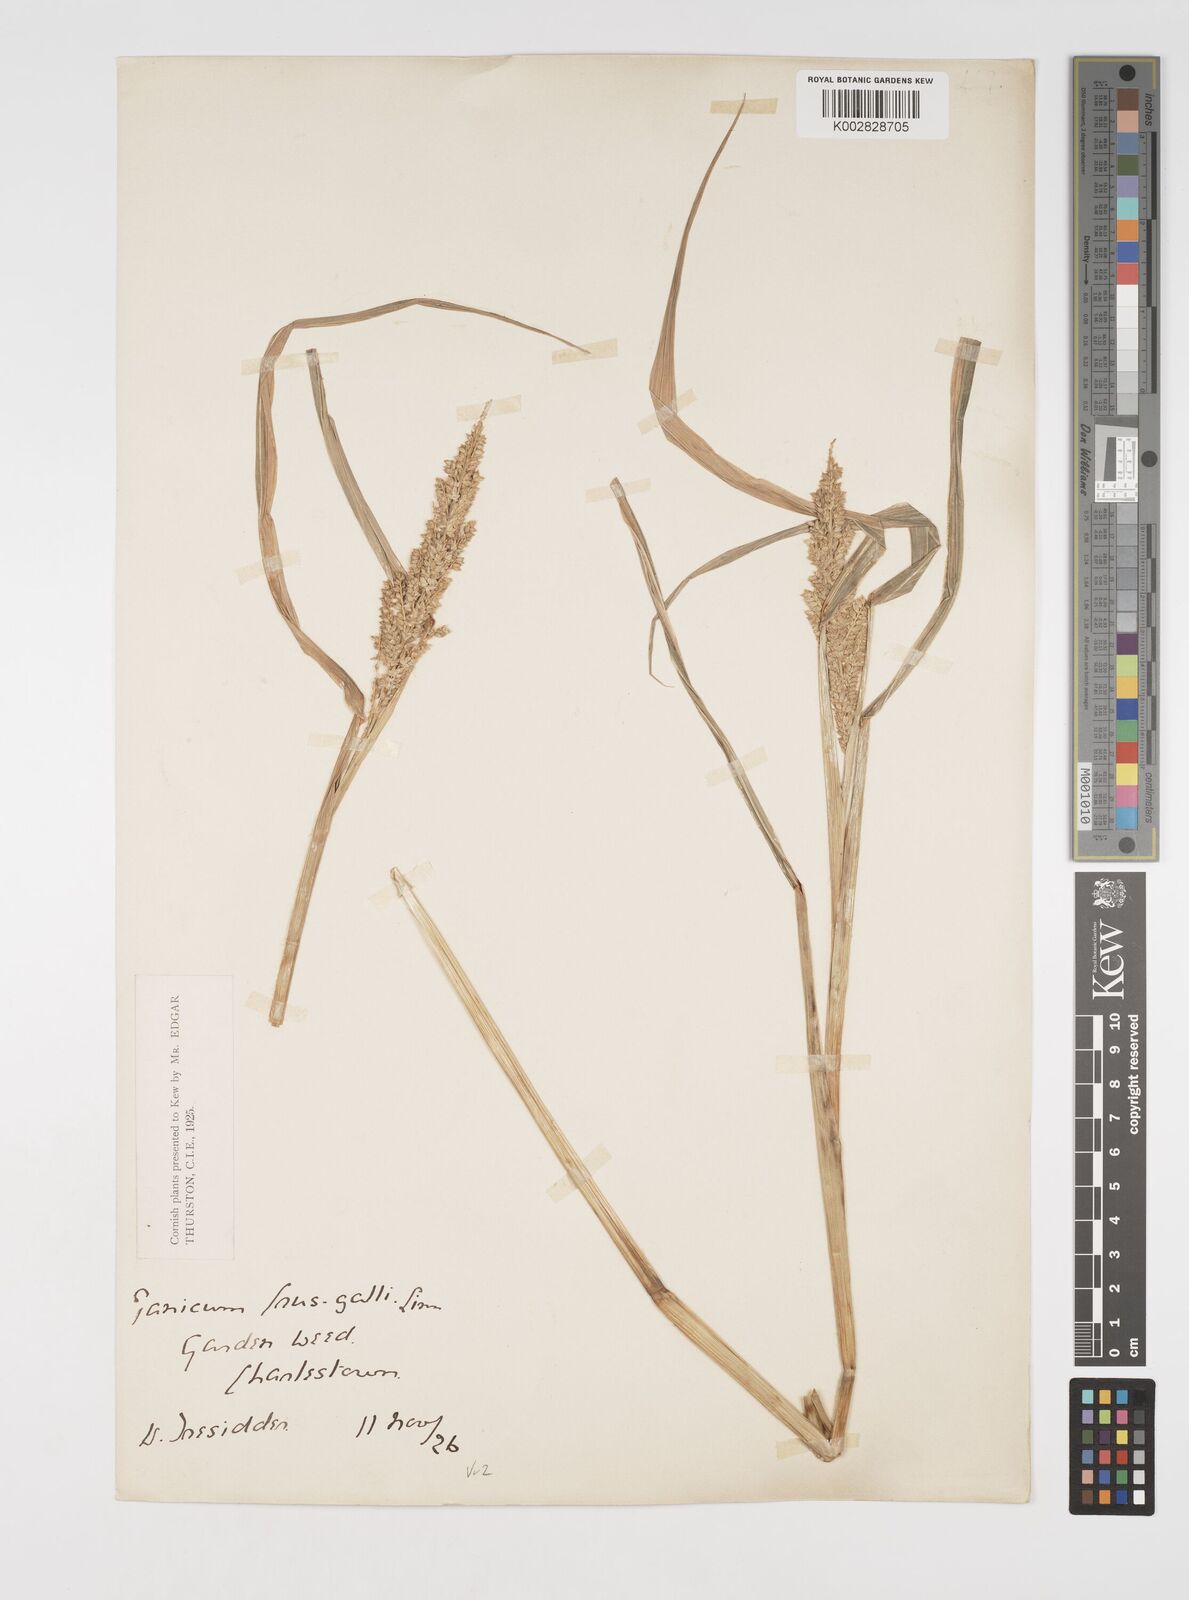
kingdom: Plantae
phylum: Tracheophyta
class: Liliopsida
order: Poales
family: Poaceae
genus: Echinochloa
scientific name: Echinochloa crus-galli
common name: Cockspur
